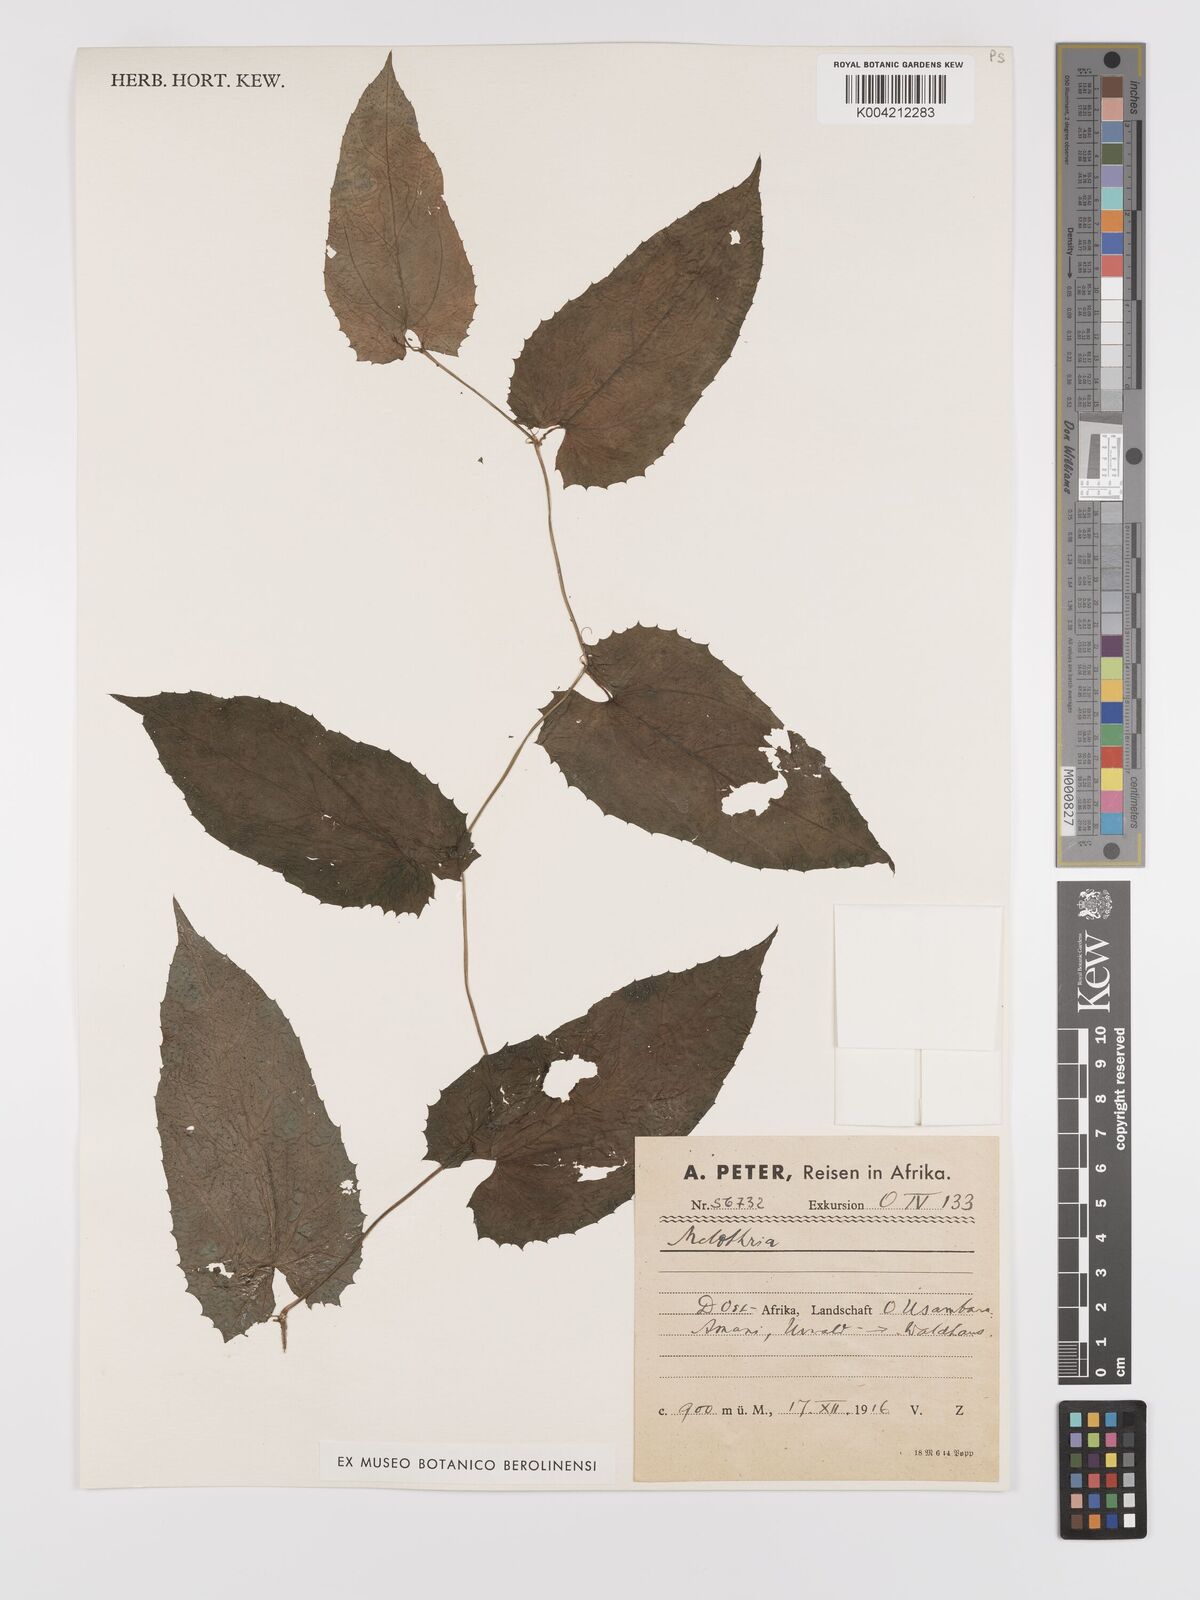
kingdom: Plantae
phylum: Tracheophyta
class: Magnoliopsida
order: Cucurbitales
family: Cucurbitaceae
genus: Kedrostis
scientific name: Kedrostis heterophylla
